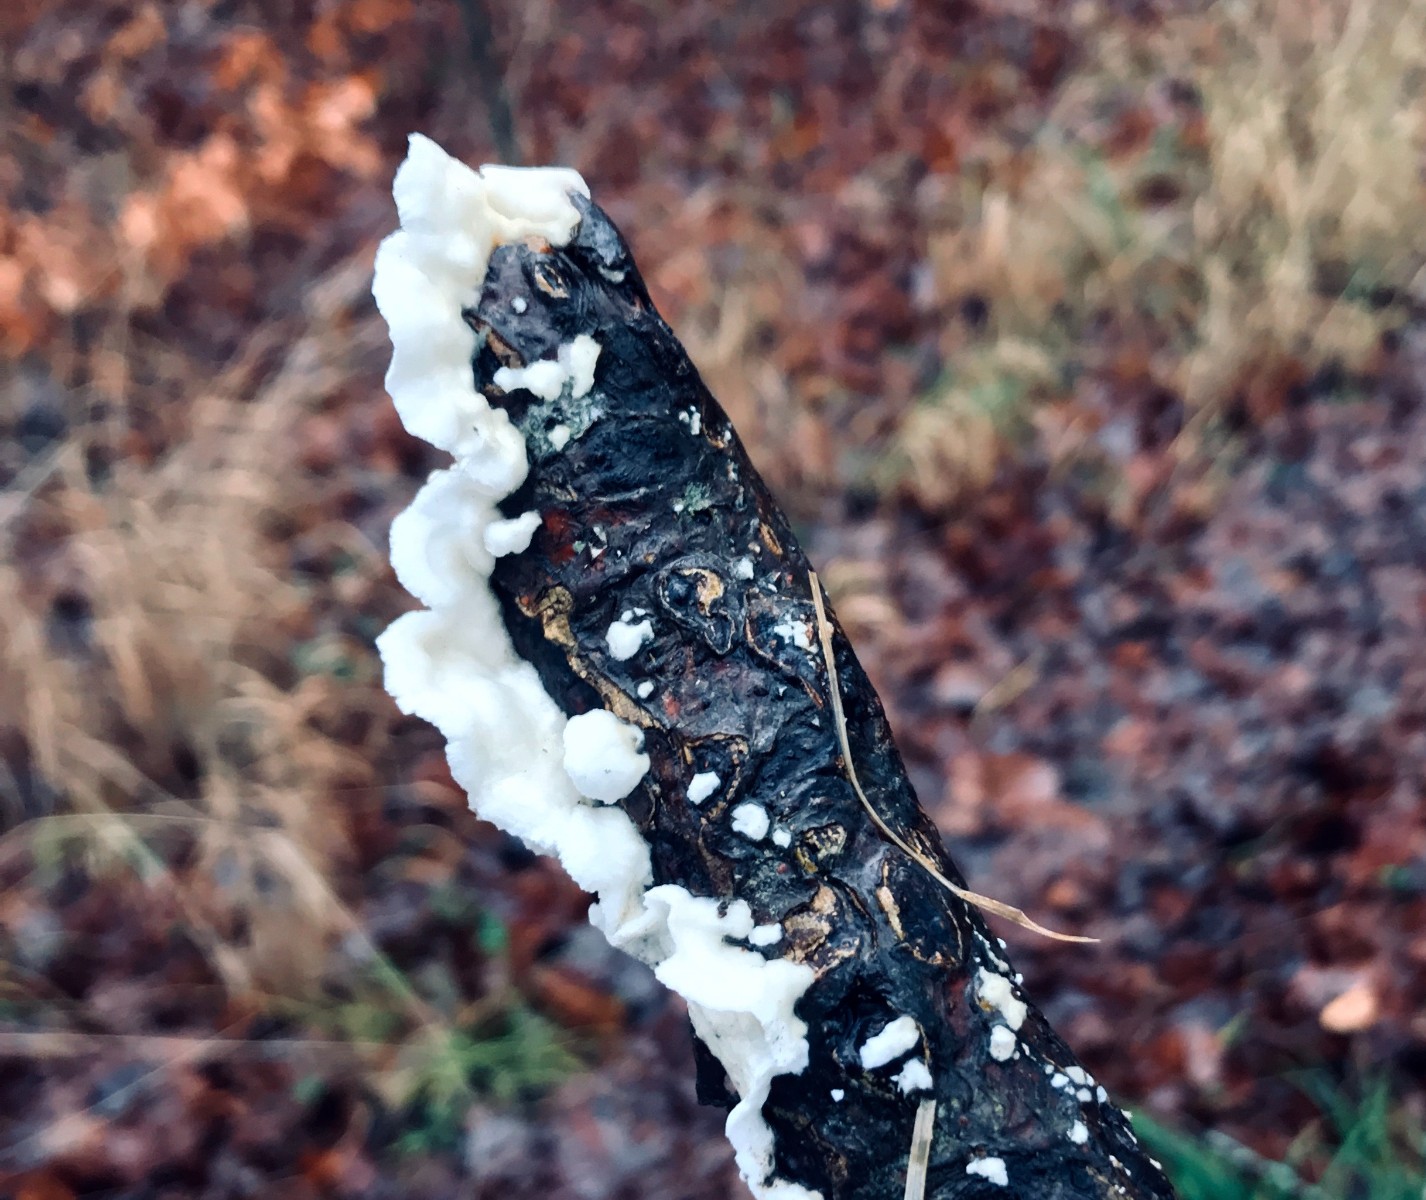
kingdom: Fungi
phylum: Basidiomycota
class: Agaricomycetes
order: Polyporales
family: Irpicaceae
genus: Byssomerulius
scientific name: Byssomerulius corium
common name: læder-åresvamp
